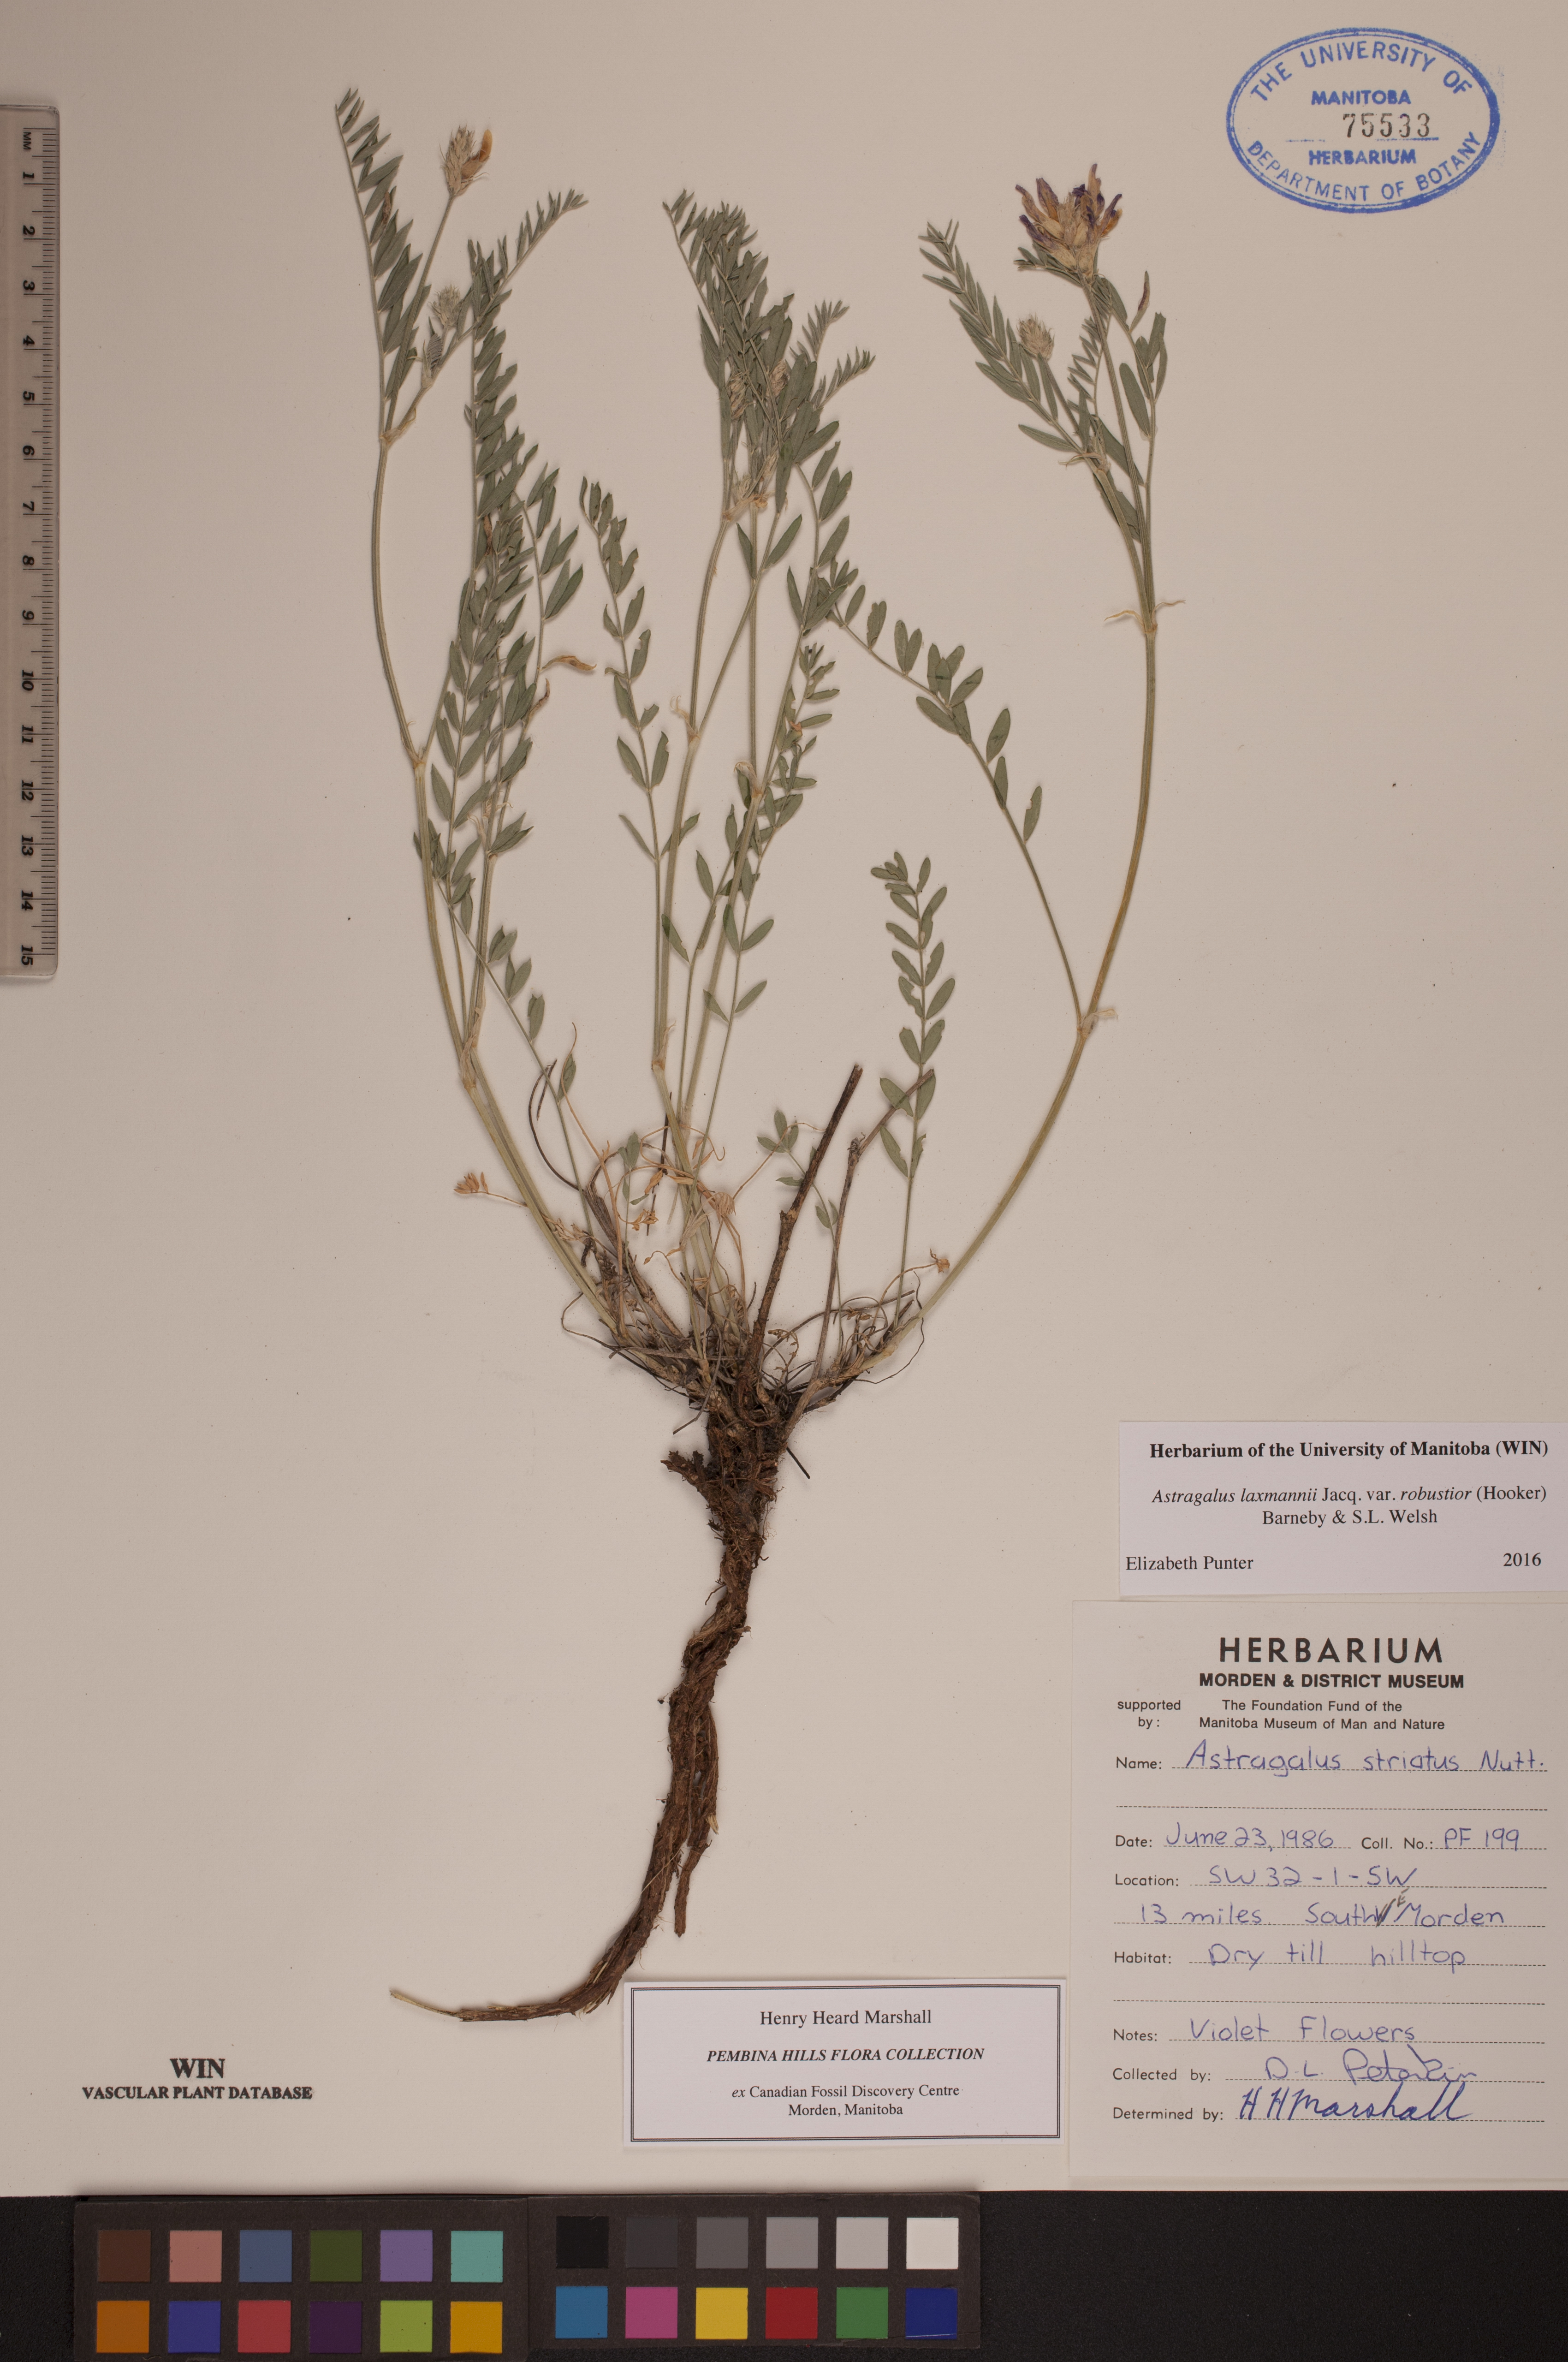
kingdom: Plantae
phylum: Tracheophyta
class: Magnoliopsida
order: Fabales
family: Fabaceae
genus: Astragalus
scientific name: Astragalus laxmannii
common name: Laxmann's milk-vetch
